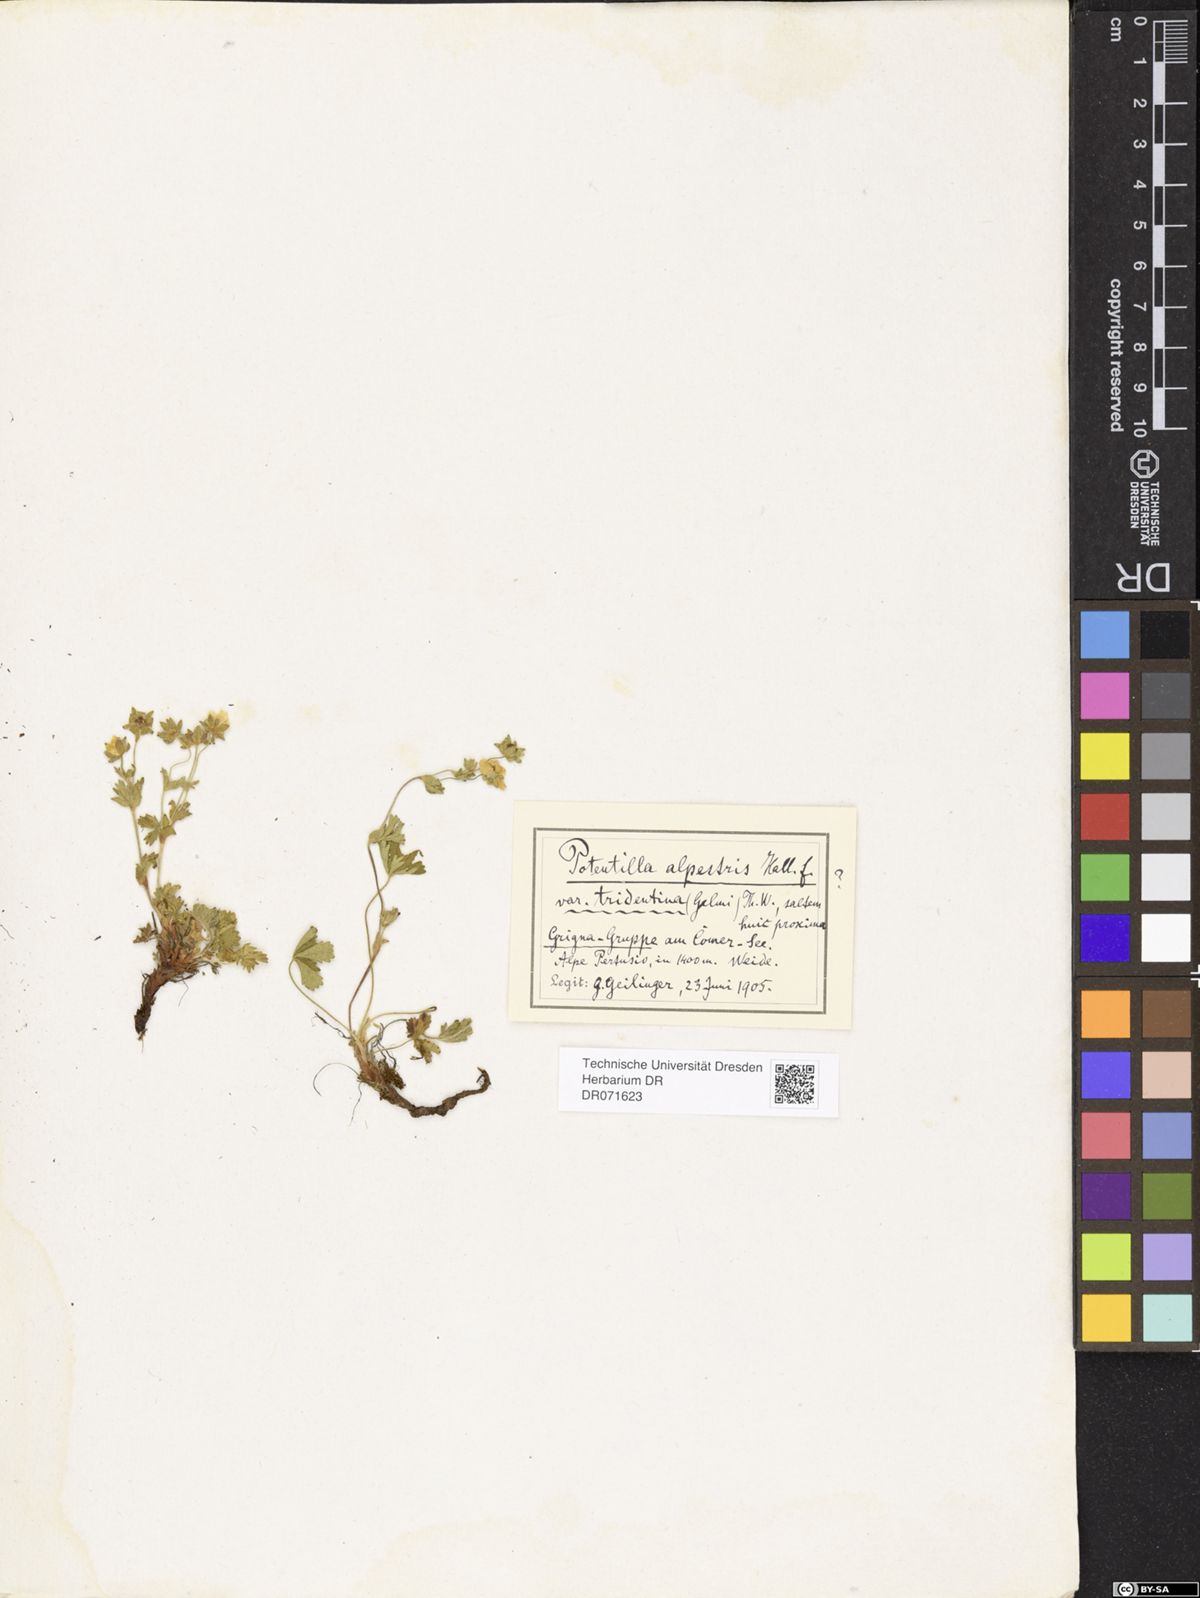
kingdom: Plantae
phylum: Tracheophyta
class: Magnoliopsida
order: Rosales
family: Rosaceae
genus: Potentilla
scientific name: Potentilla crantzii
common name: Alpine cinquefoil
